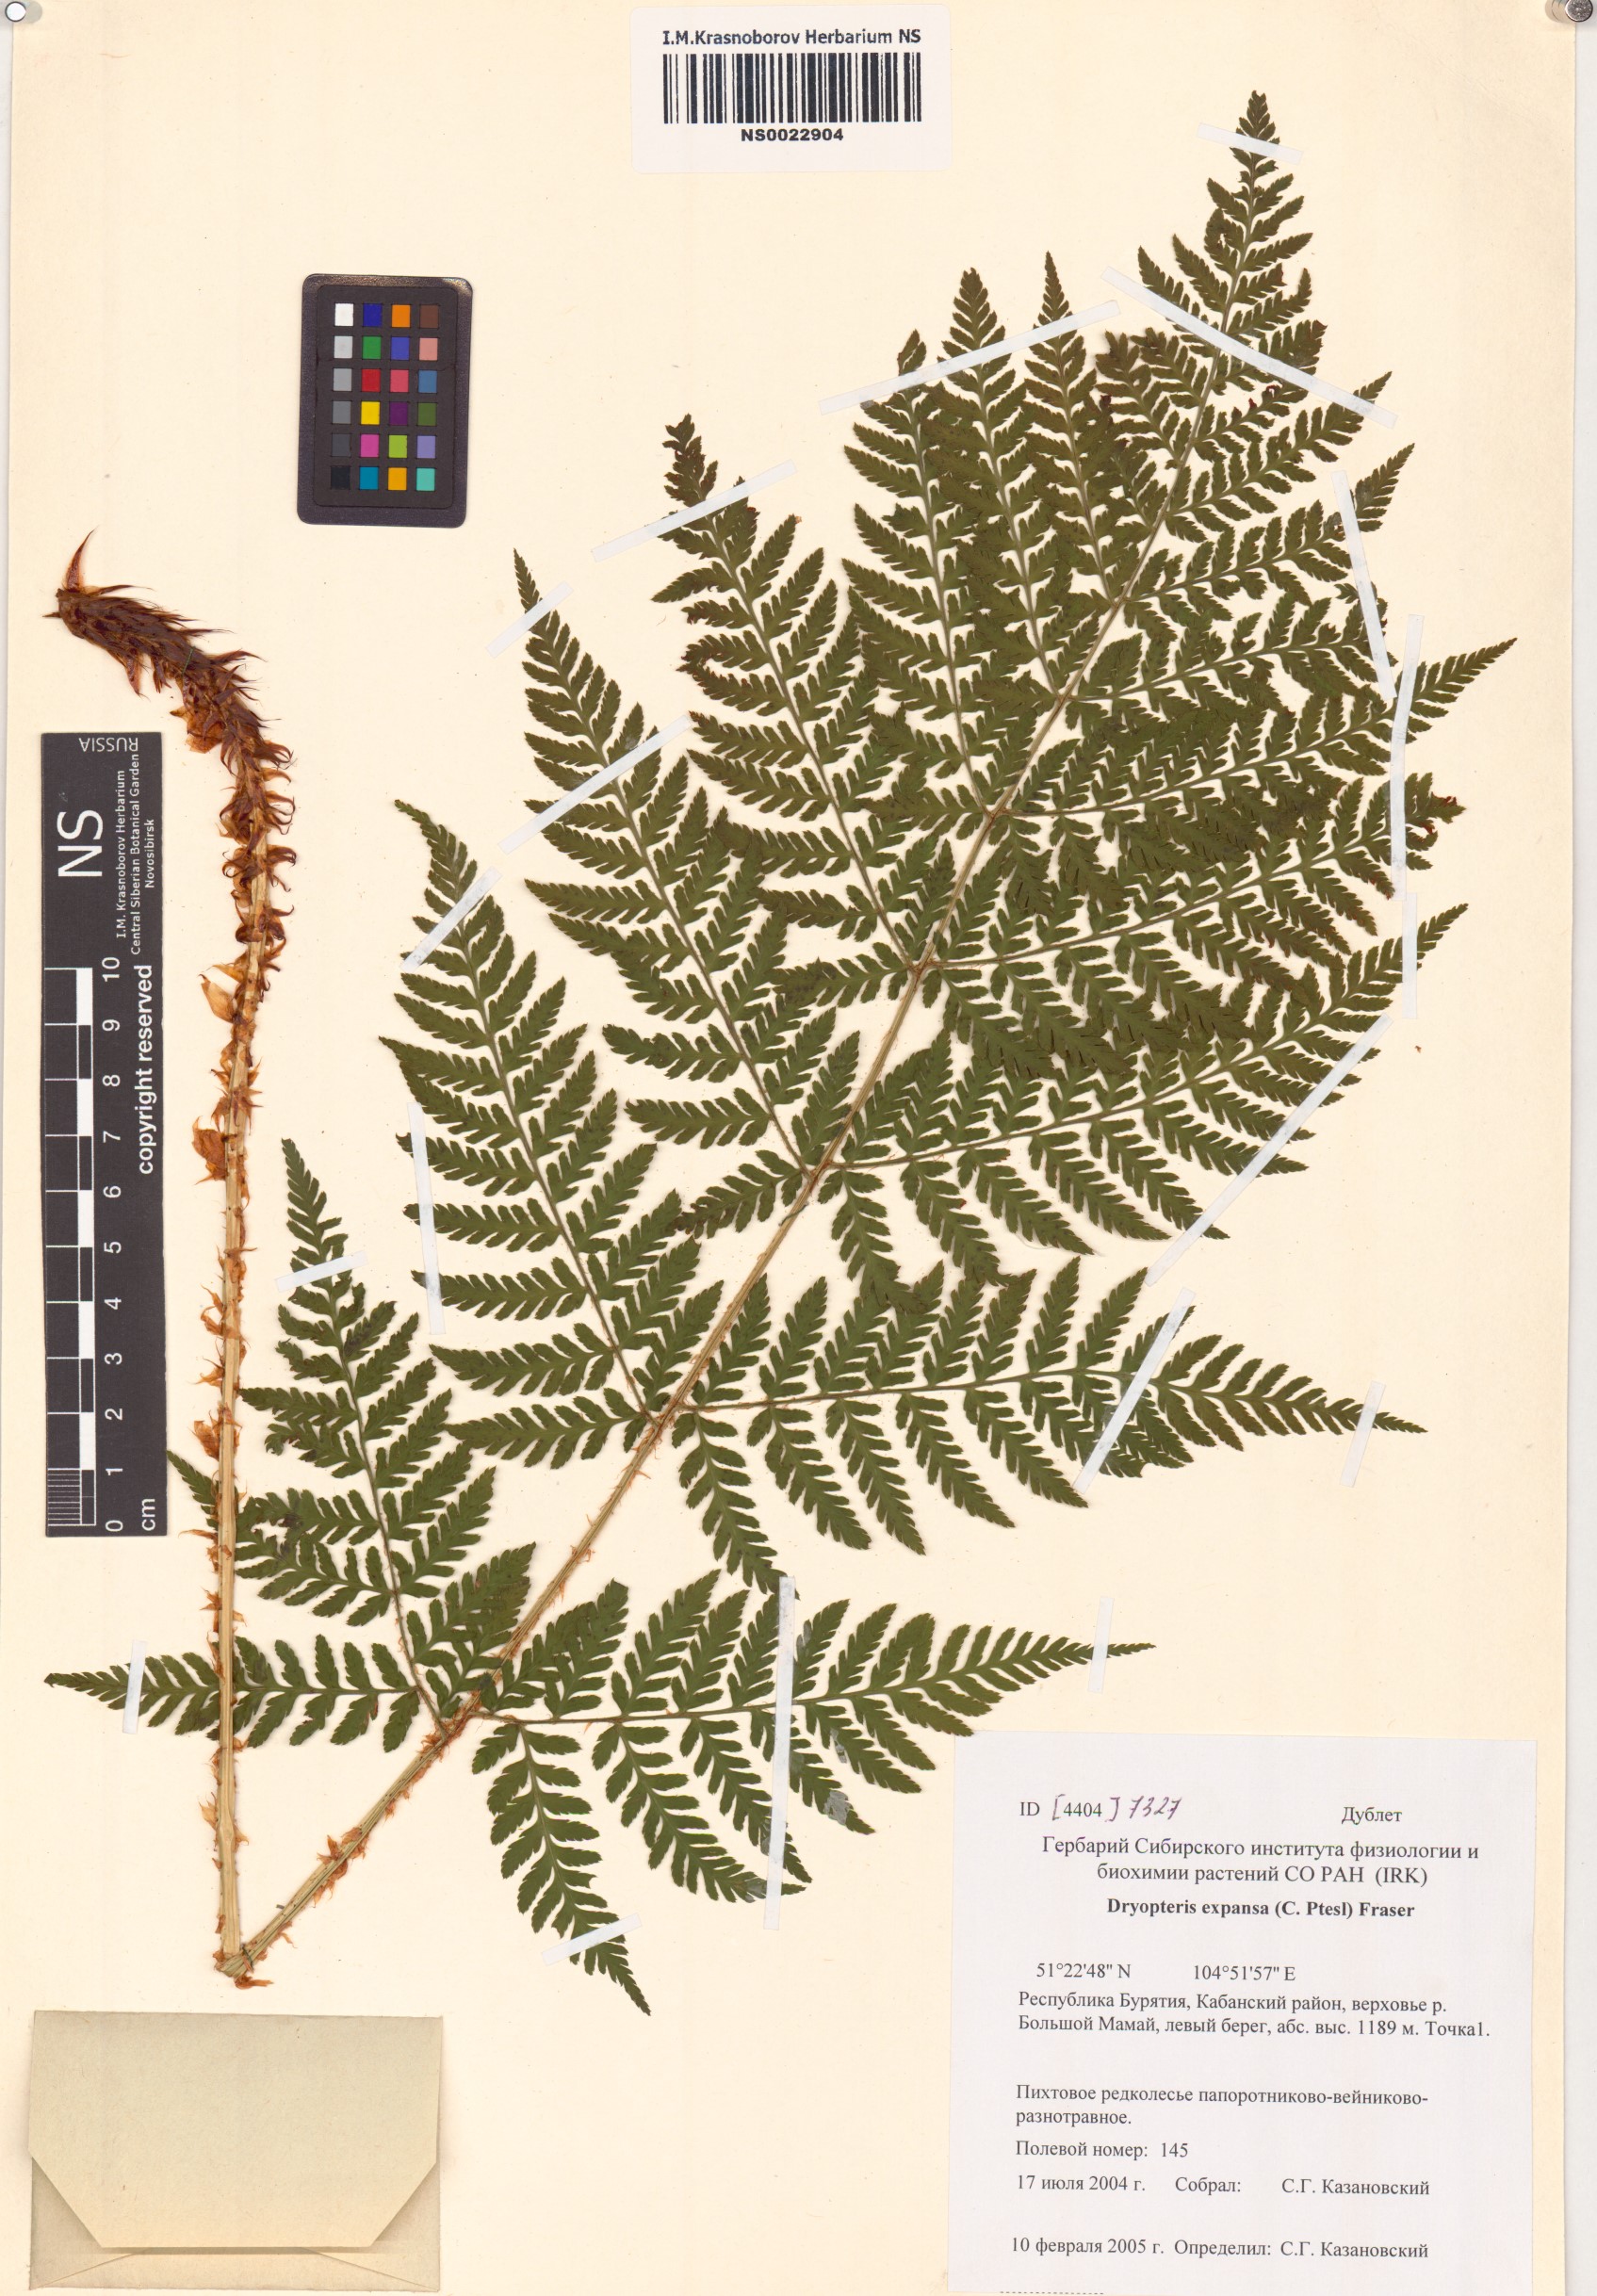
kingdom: Plantae
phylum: Tracheophyta
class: Polypodiopsida
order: Polypodiales
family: Dryopteridaceae
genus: Dryopteris
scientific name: Dryopteris expansa
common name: Northern buckler fern
